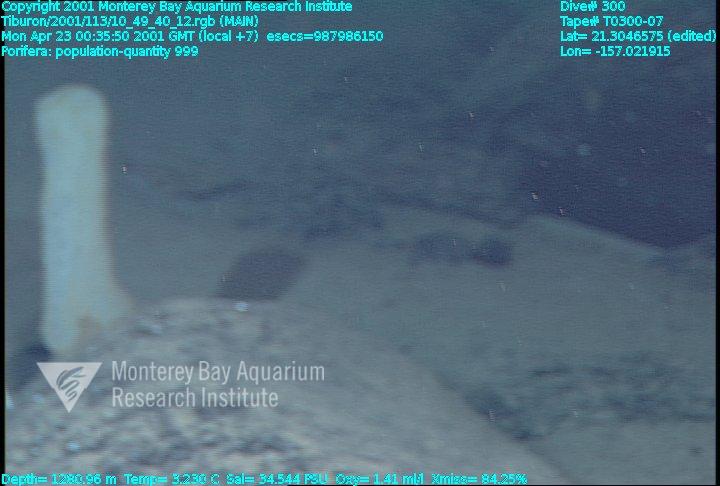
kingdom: Animalia
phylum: Porifera
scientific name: Porifera
